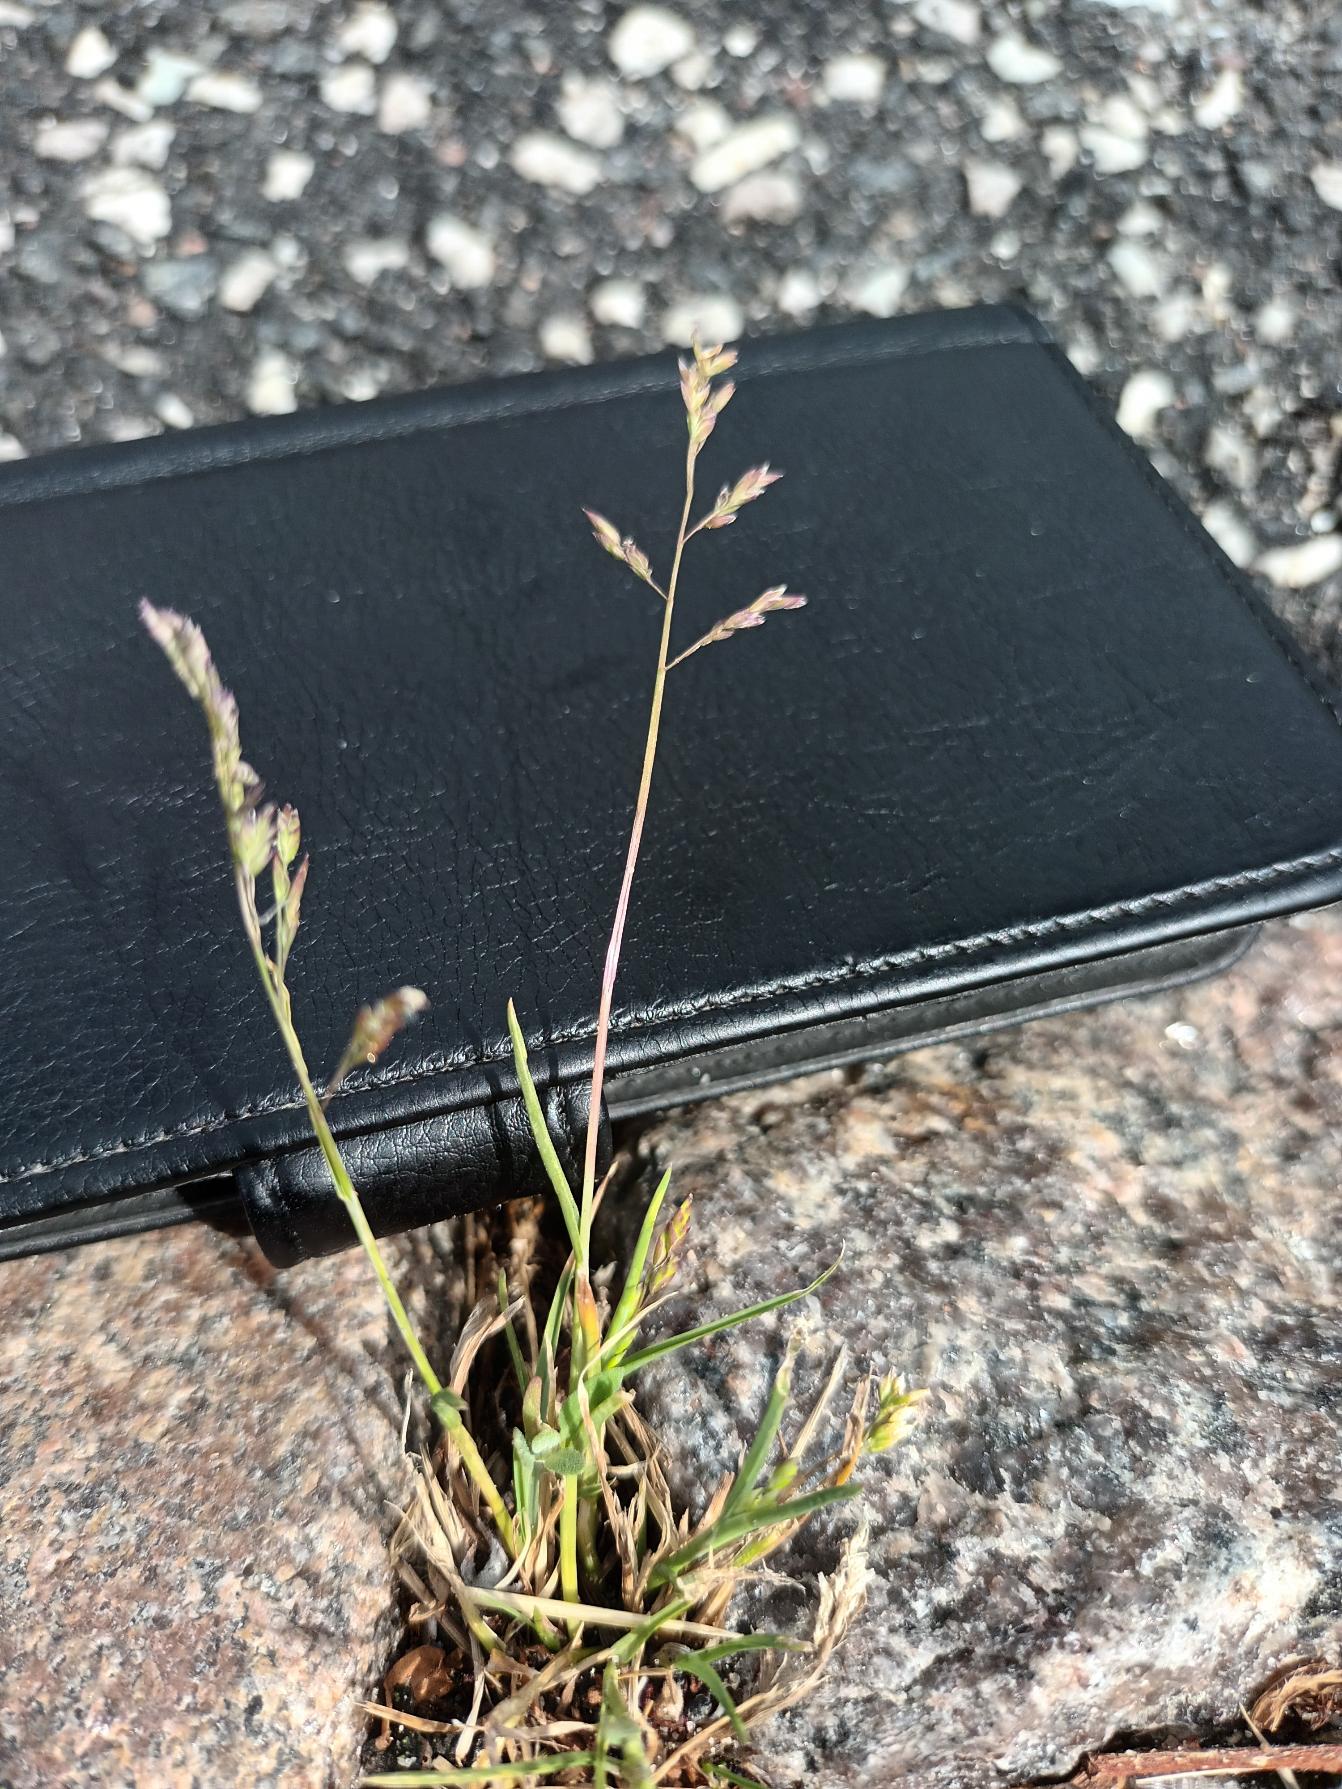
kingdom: Plantae
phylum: Tracheophyta
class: Liliopsida
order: Poales
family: Poaceae
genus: Poa
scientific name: Poa annua
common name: Enårig rapgræs
